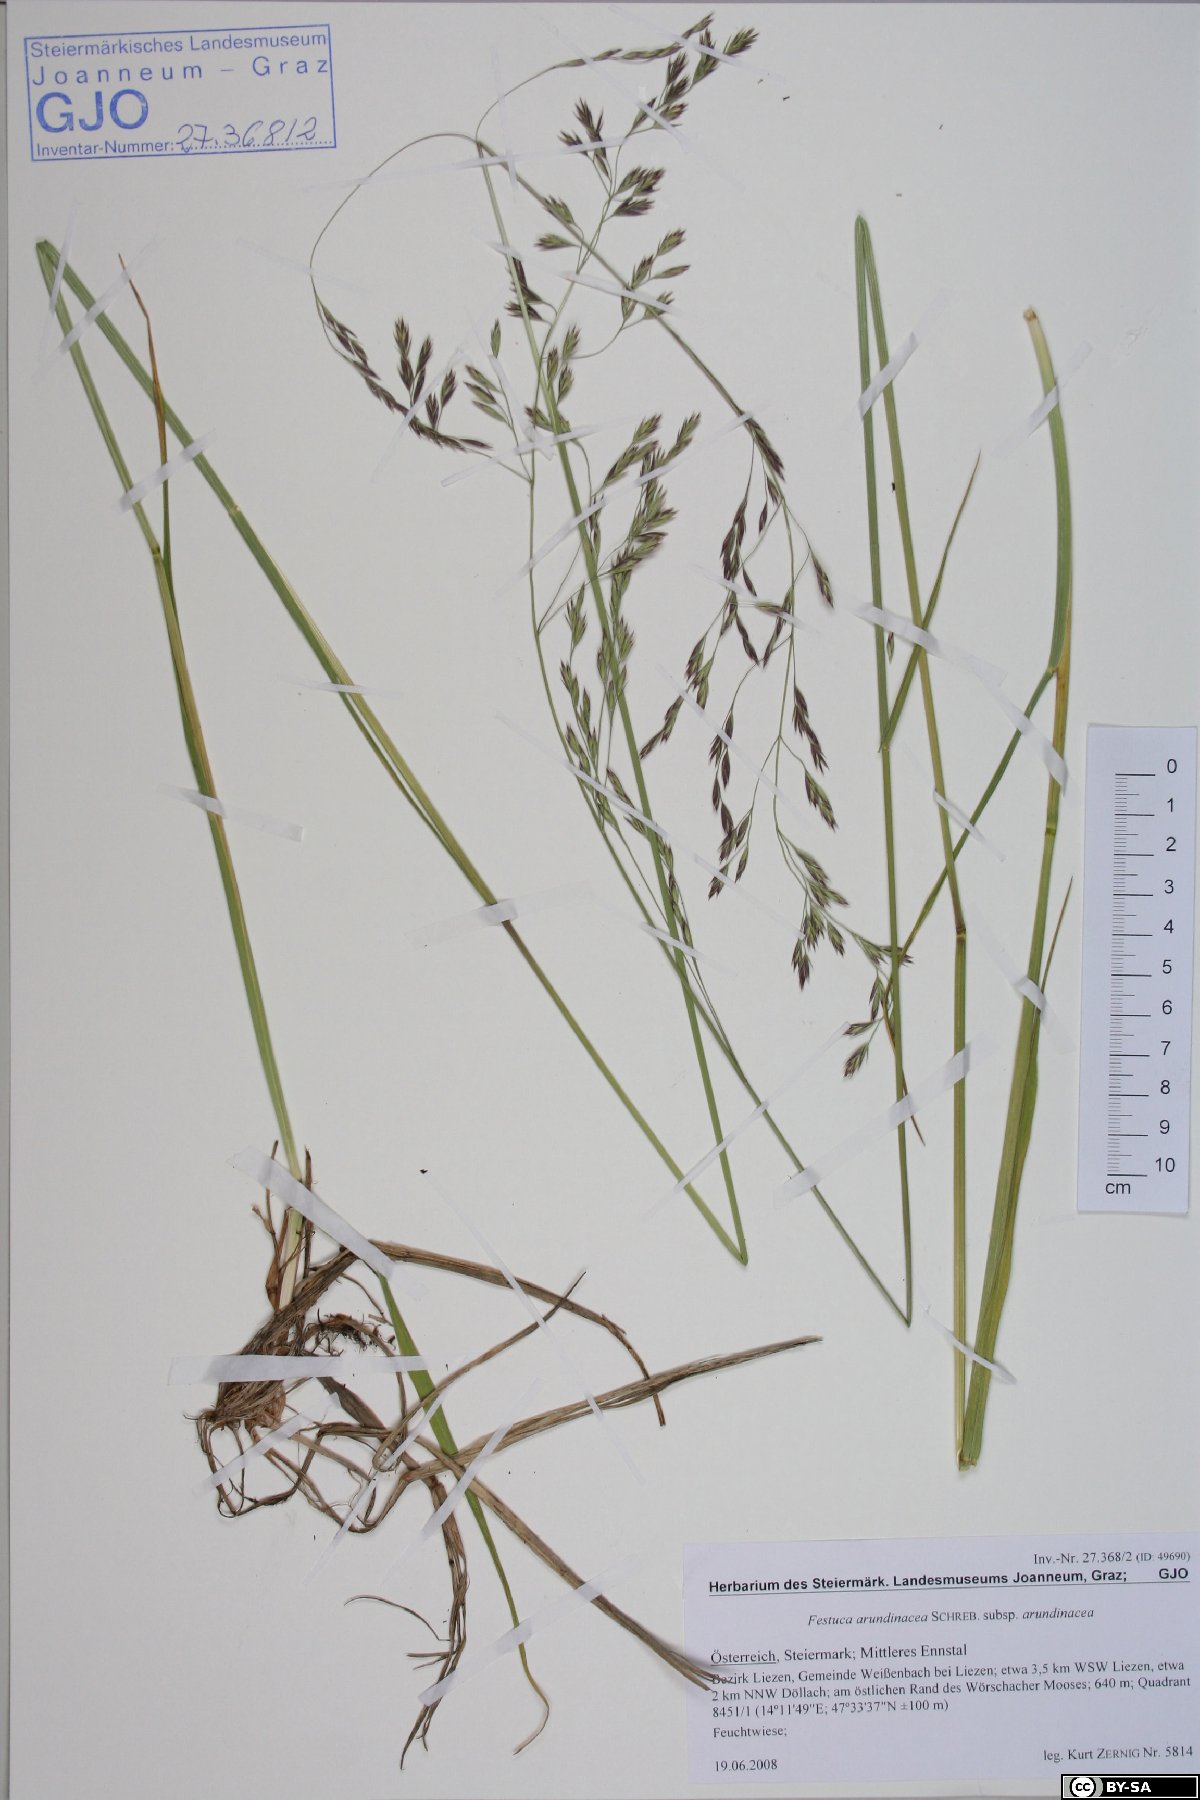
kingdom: Plantae
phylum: Tracheophyta
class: Liliopsida
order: Poales
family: Poaceae
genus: Lolium
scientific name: Lolium arundinaceum
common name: Reed fescue
